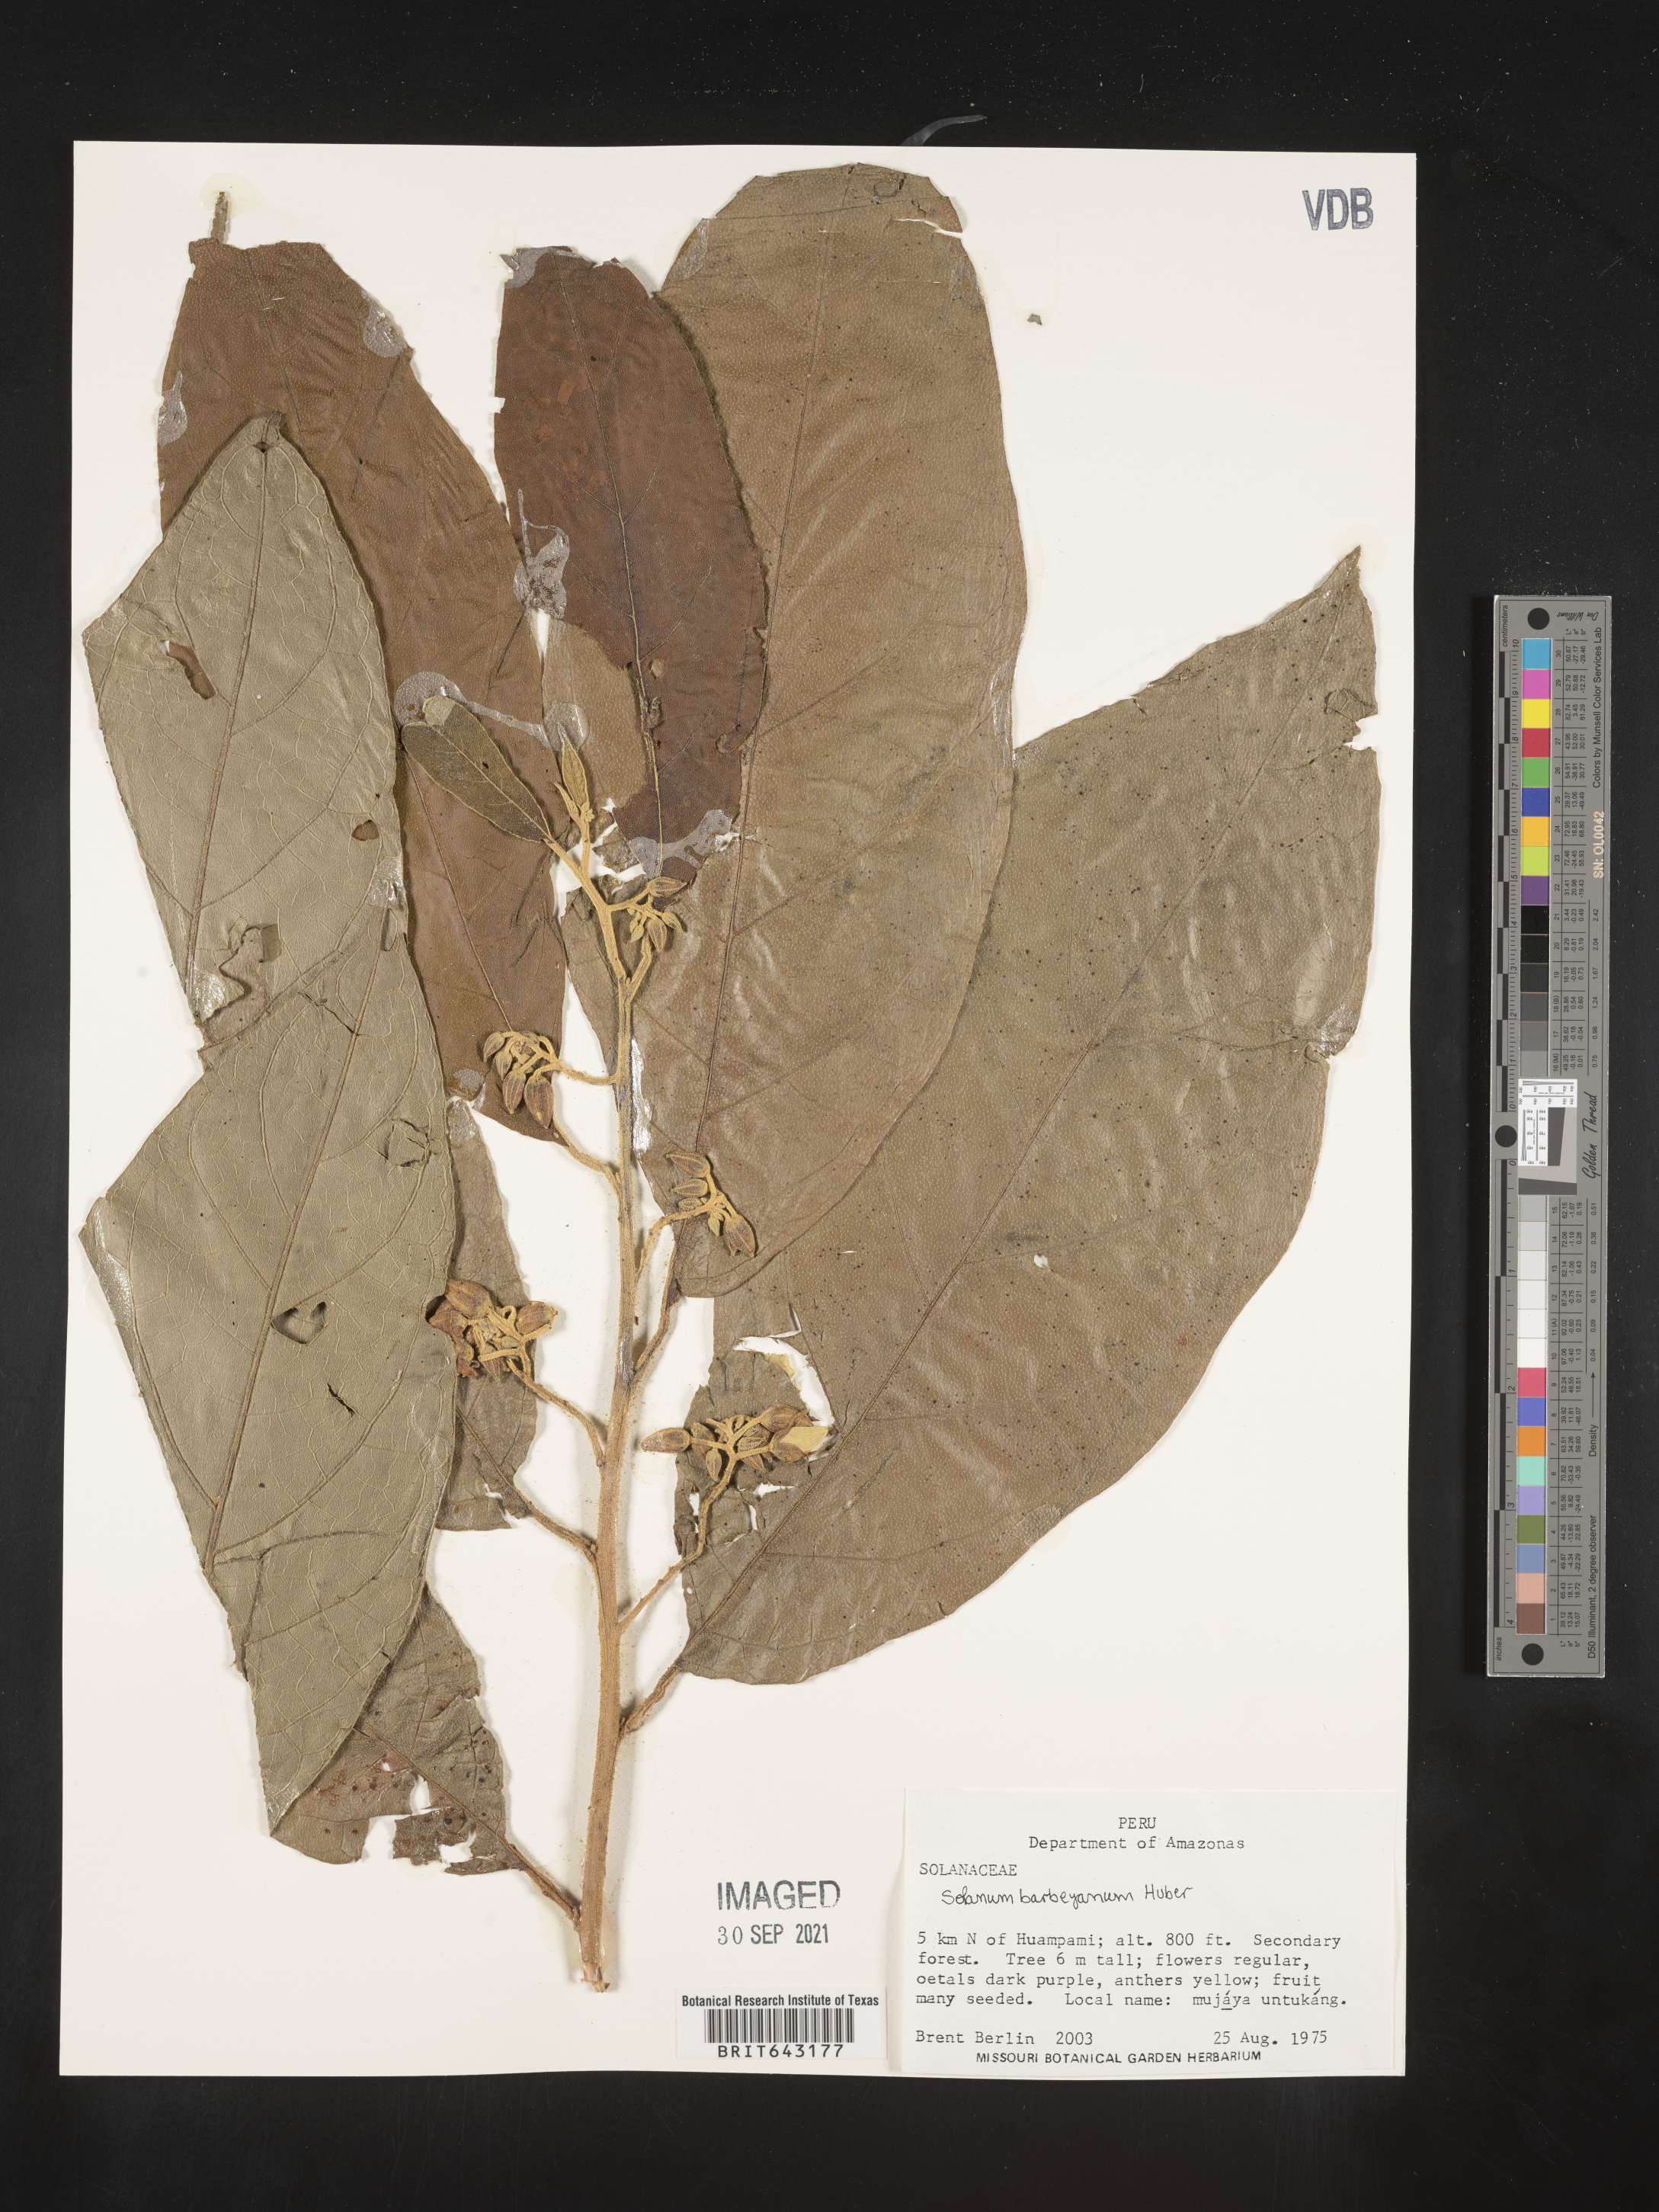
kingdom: Plantae
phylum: Tracheophyta
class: Magnoliopsida
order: Solanales
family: Solanaceae
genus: Solanum
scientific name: Solanum
